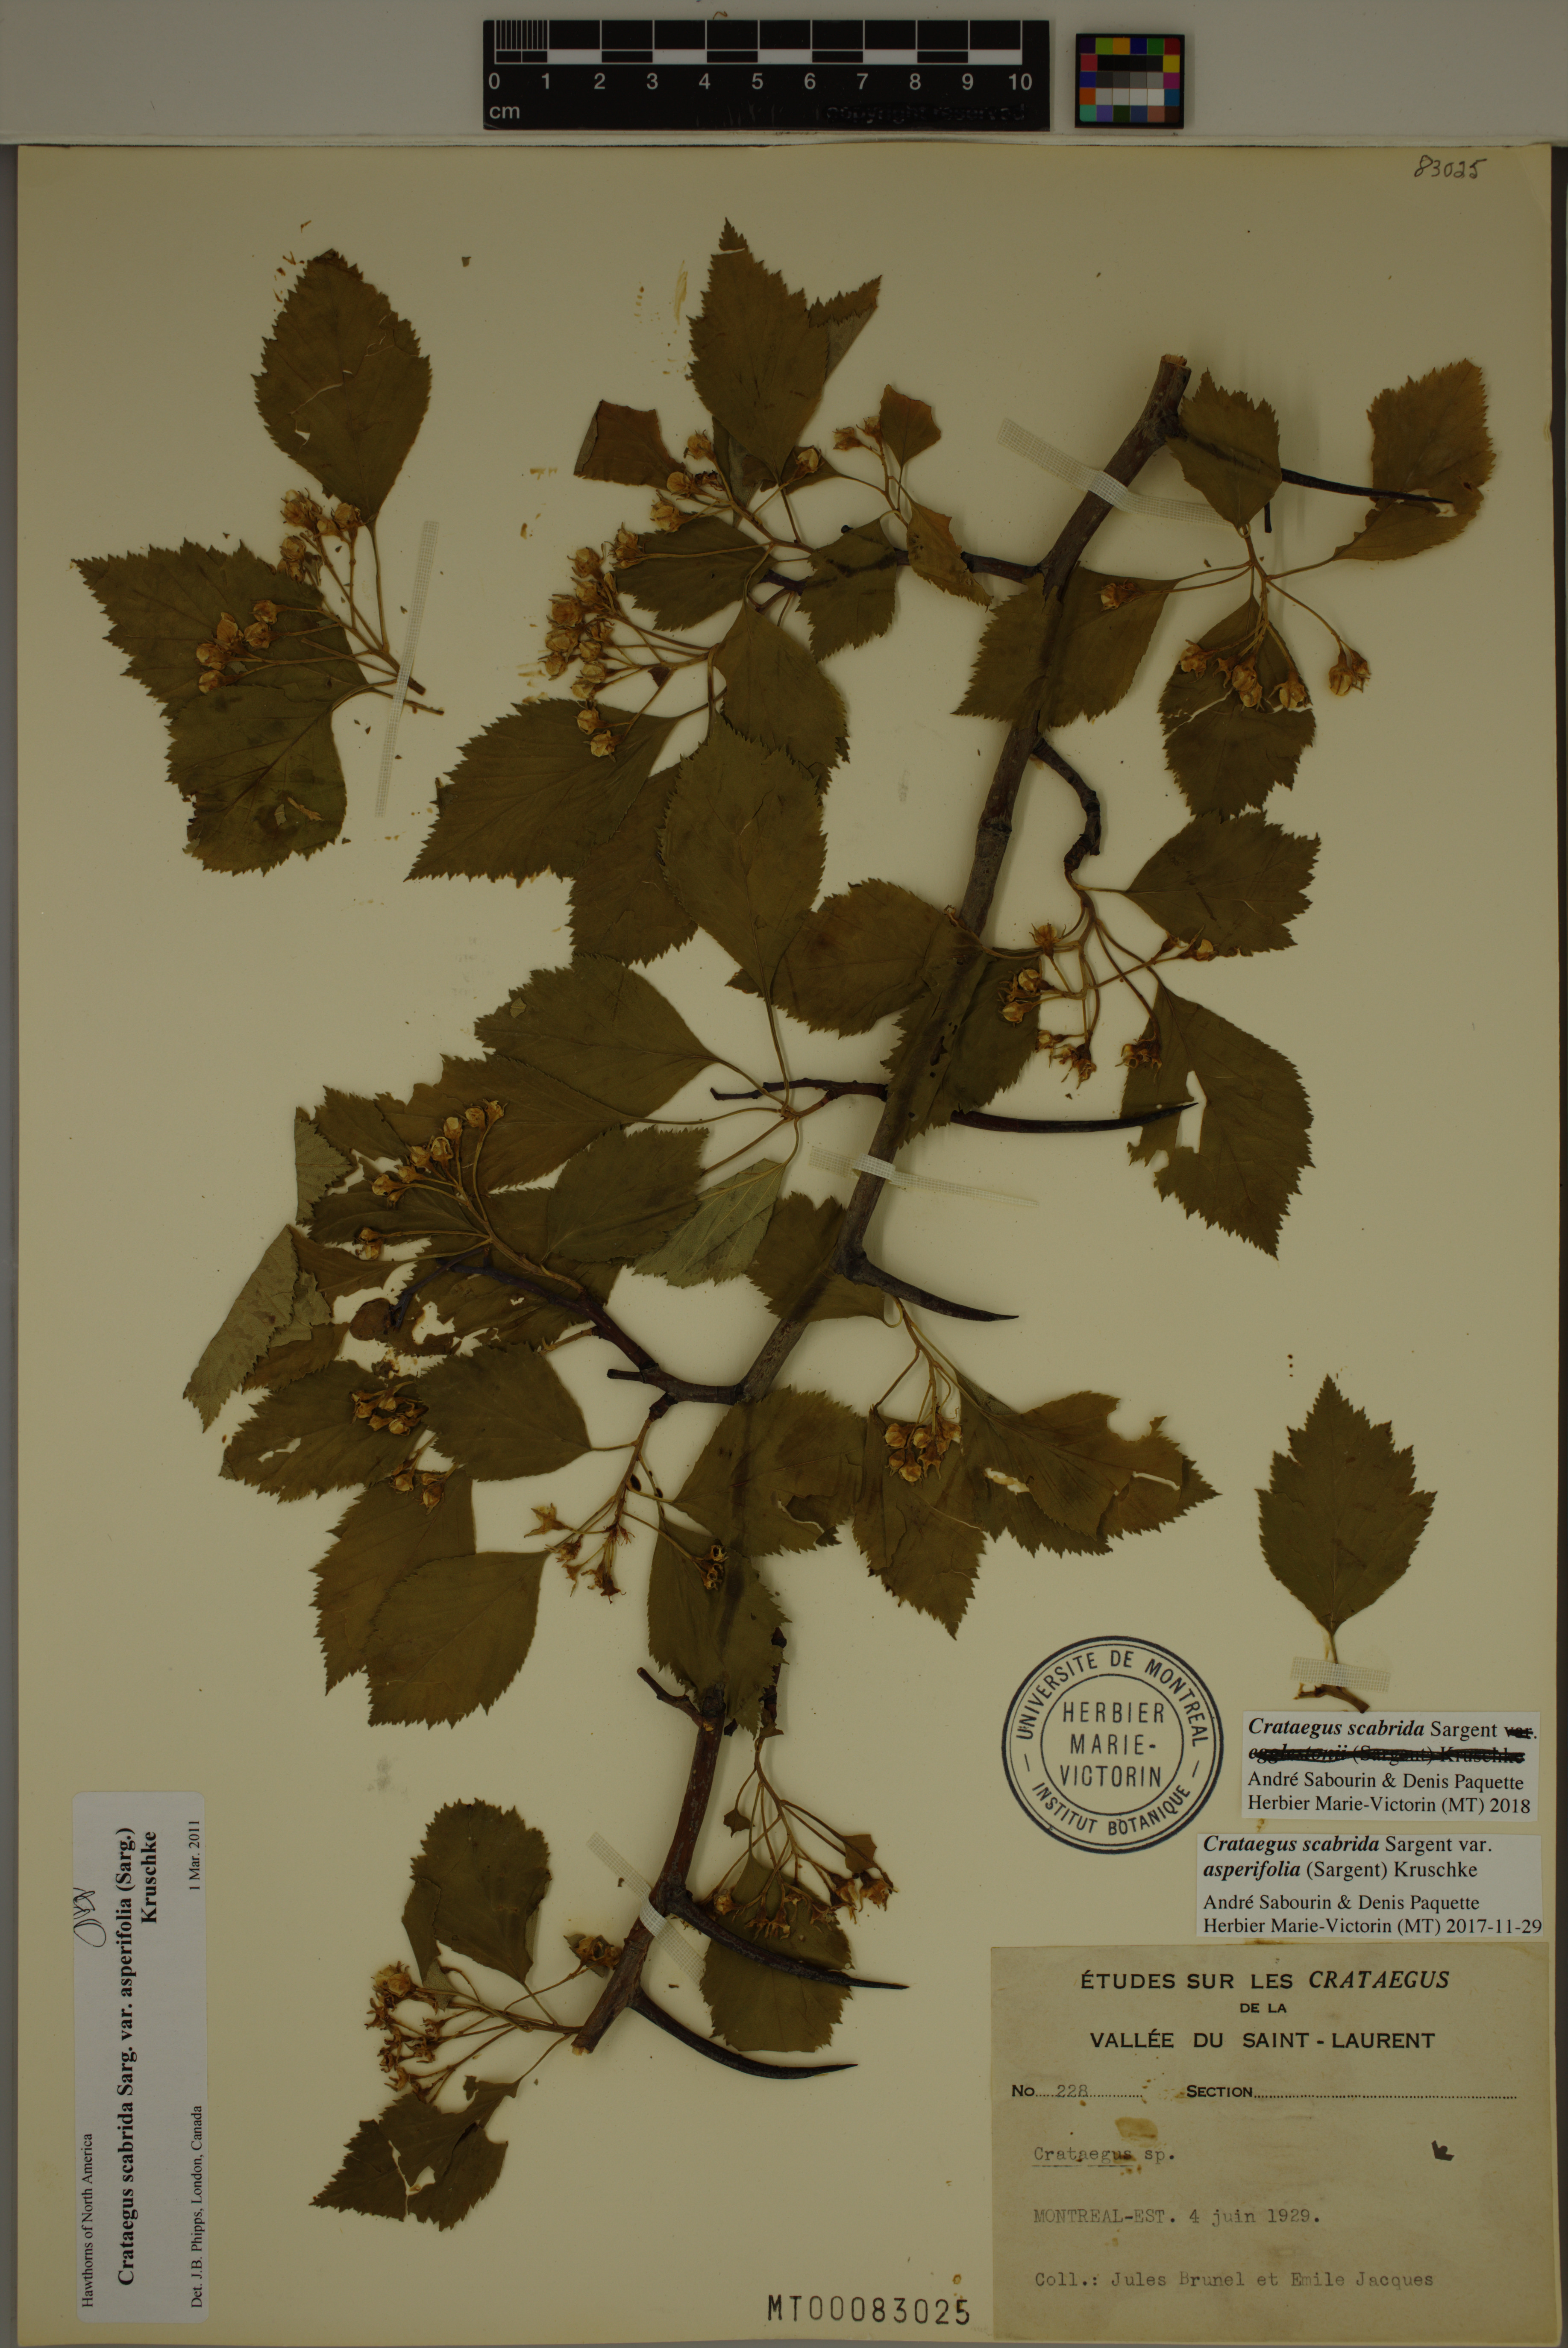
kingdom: Plantae
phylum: Tracheophyta
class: Magnoliopsida
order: Rosales
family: Rosaceae
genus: Crataegus
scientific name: Crataegus scabrida
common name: Rough hawthorn
